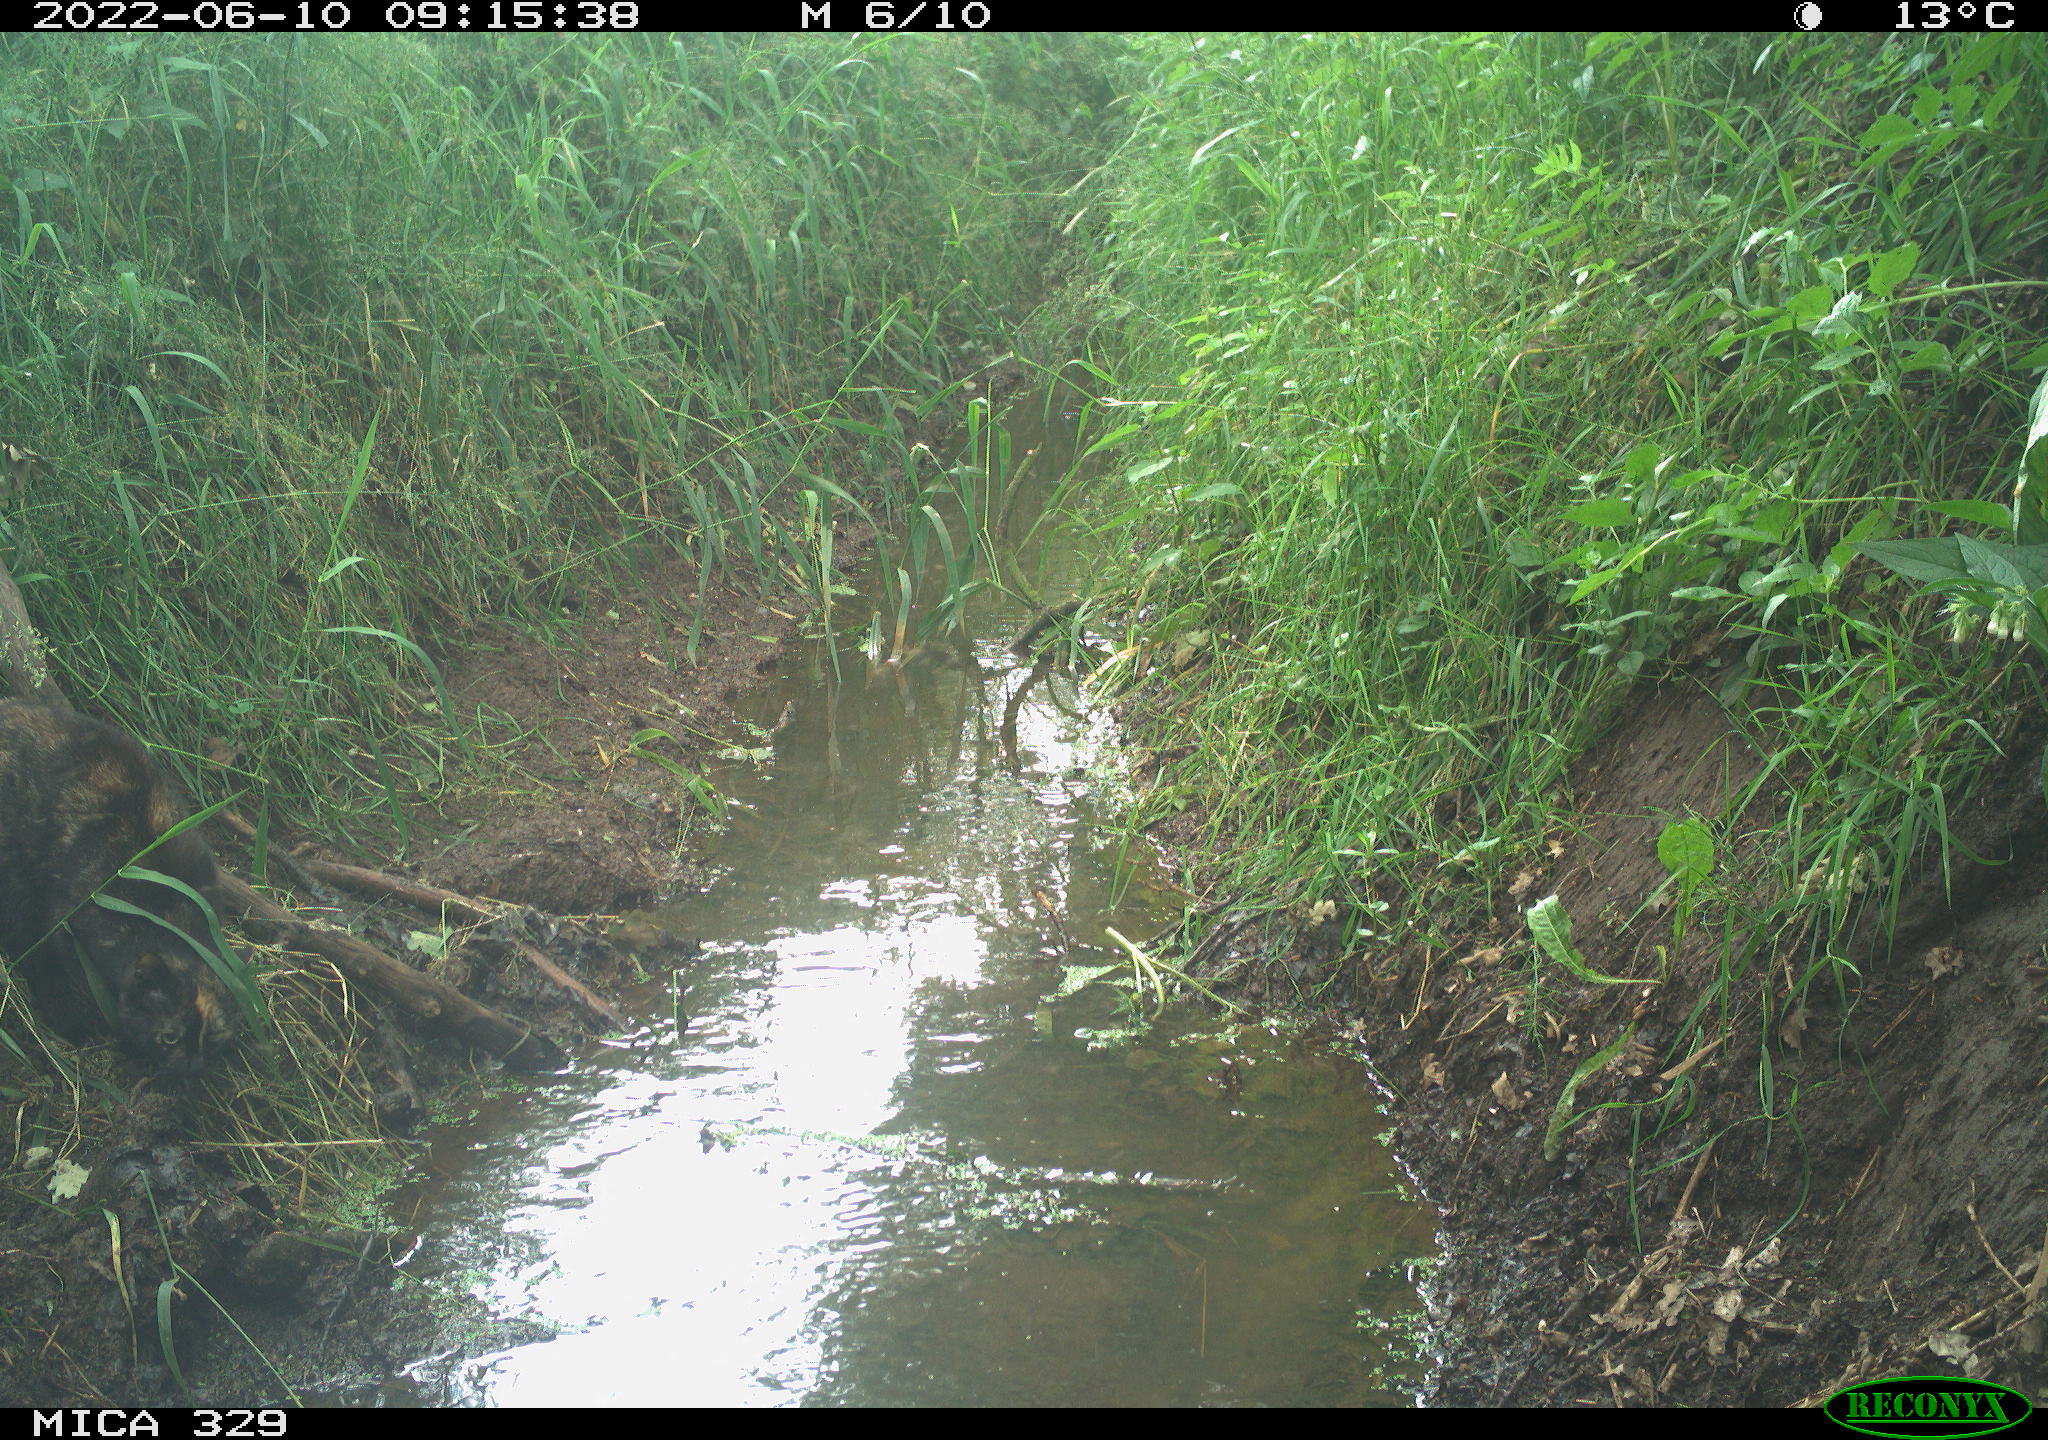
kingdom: Animalia
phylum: Chordata
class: Mammalia
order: Carnivora
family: Felidae
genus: Felis
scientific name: Felis catus
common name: Domestic cat
